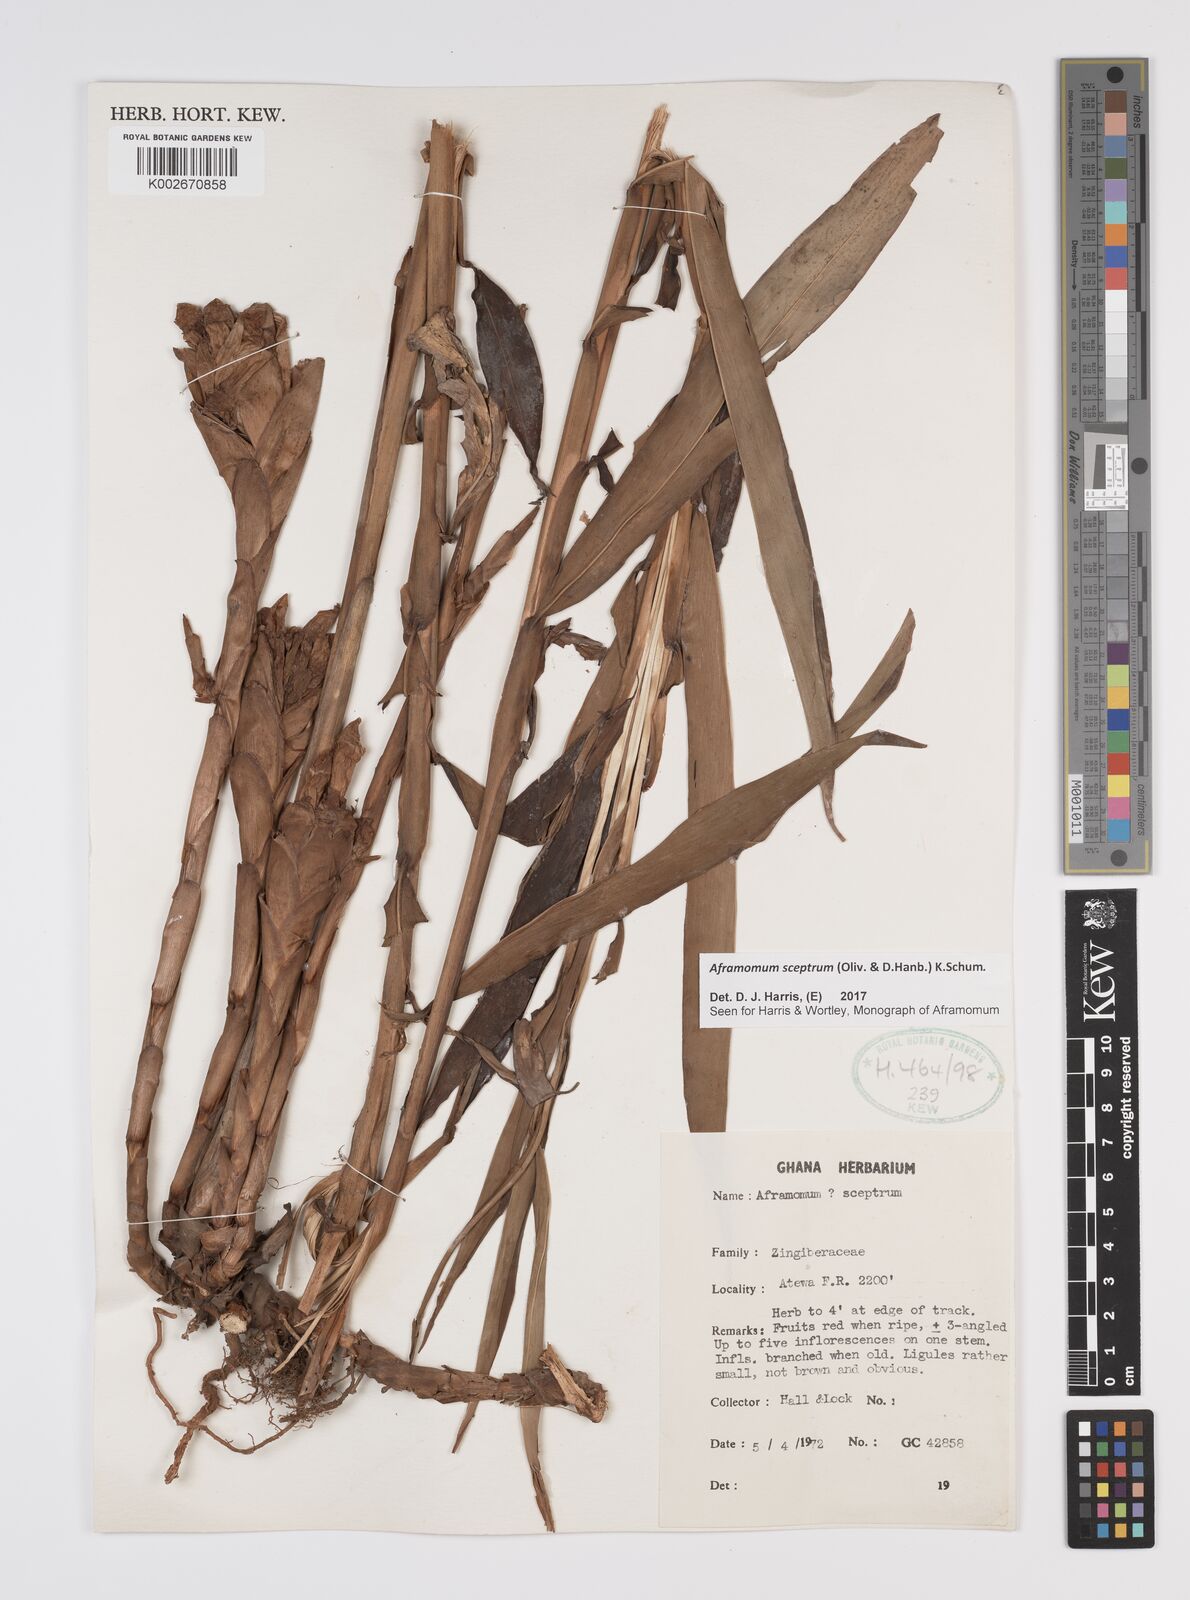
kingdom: Plantae
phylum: Tracheophyta
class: Liliopsida
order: Zingiberales
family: Zingiberaceae
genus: Aframomum
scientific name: Aframomum cereum
